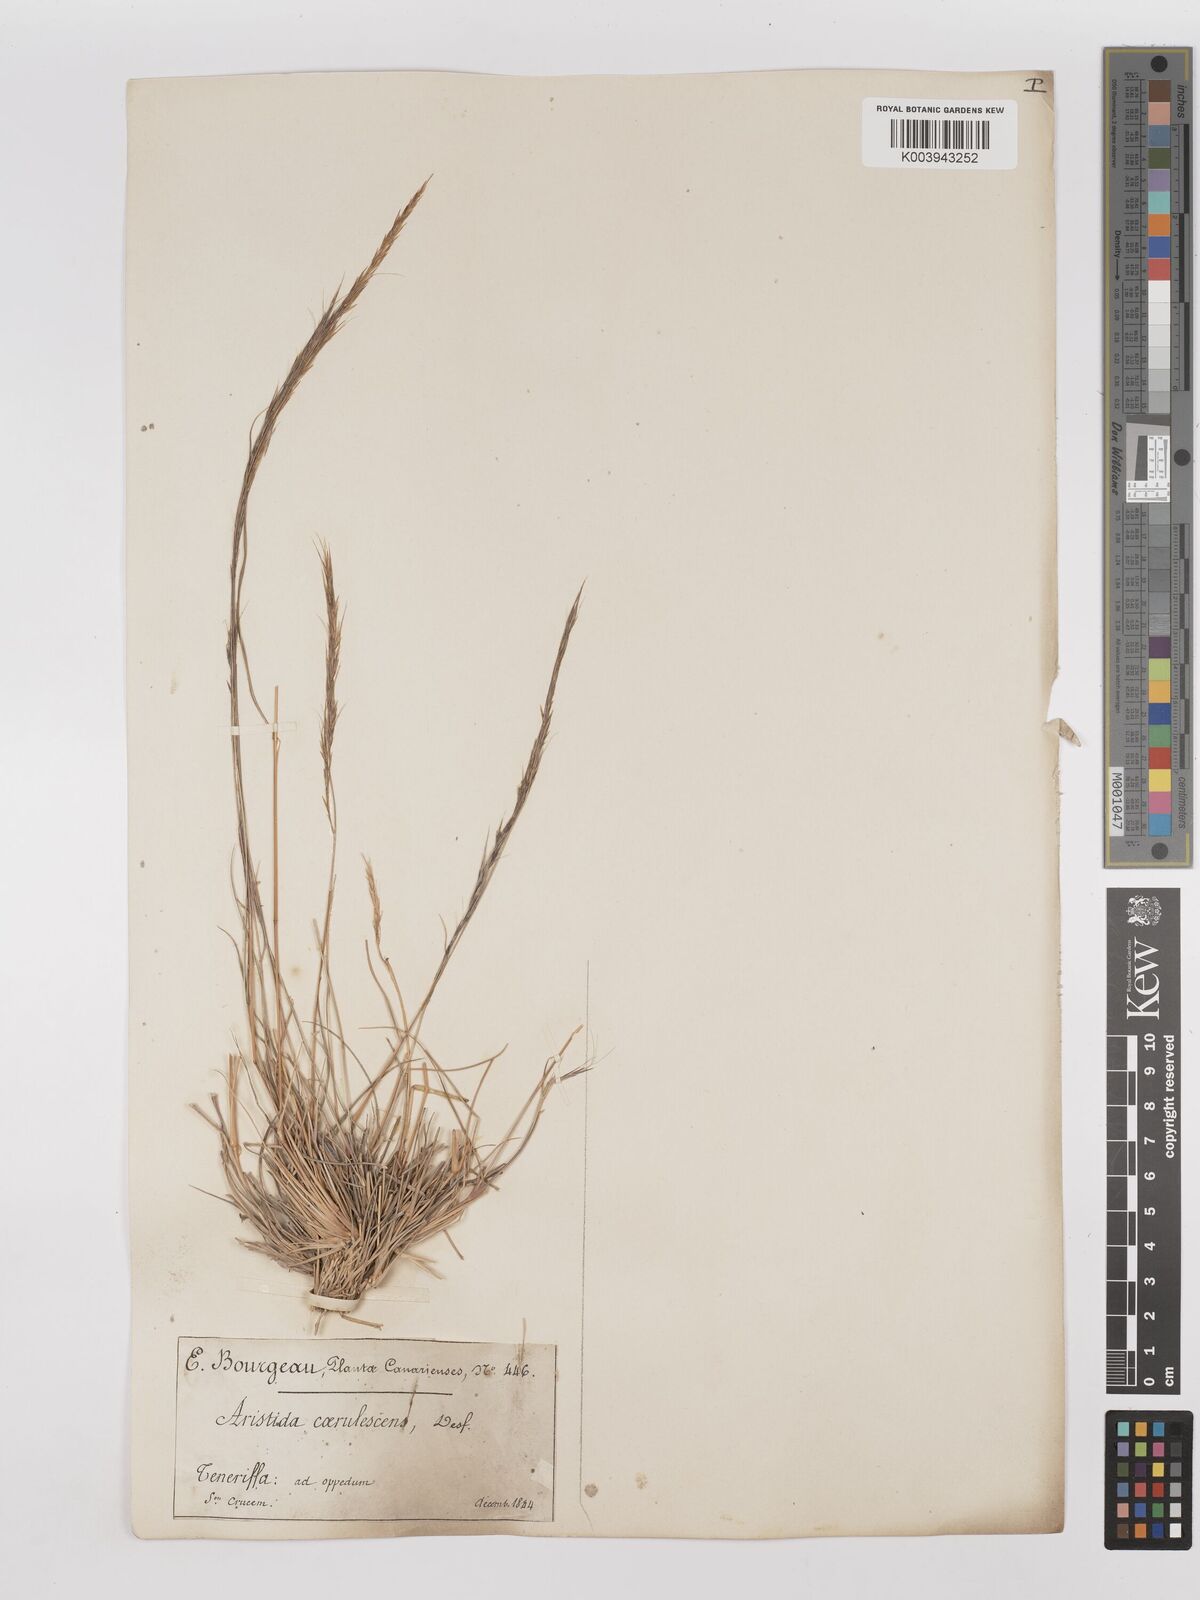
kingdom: Plantae
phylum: Tracheophyta
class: Liliopsida
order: Poales
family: Poaceae
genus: Aristida
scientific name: Aristida adscensionis
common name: Sixweeks threeawn
